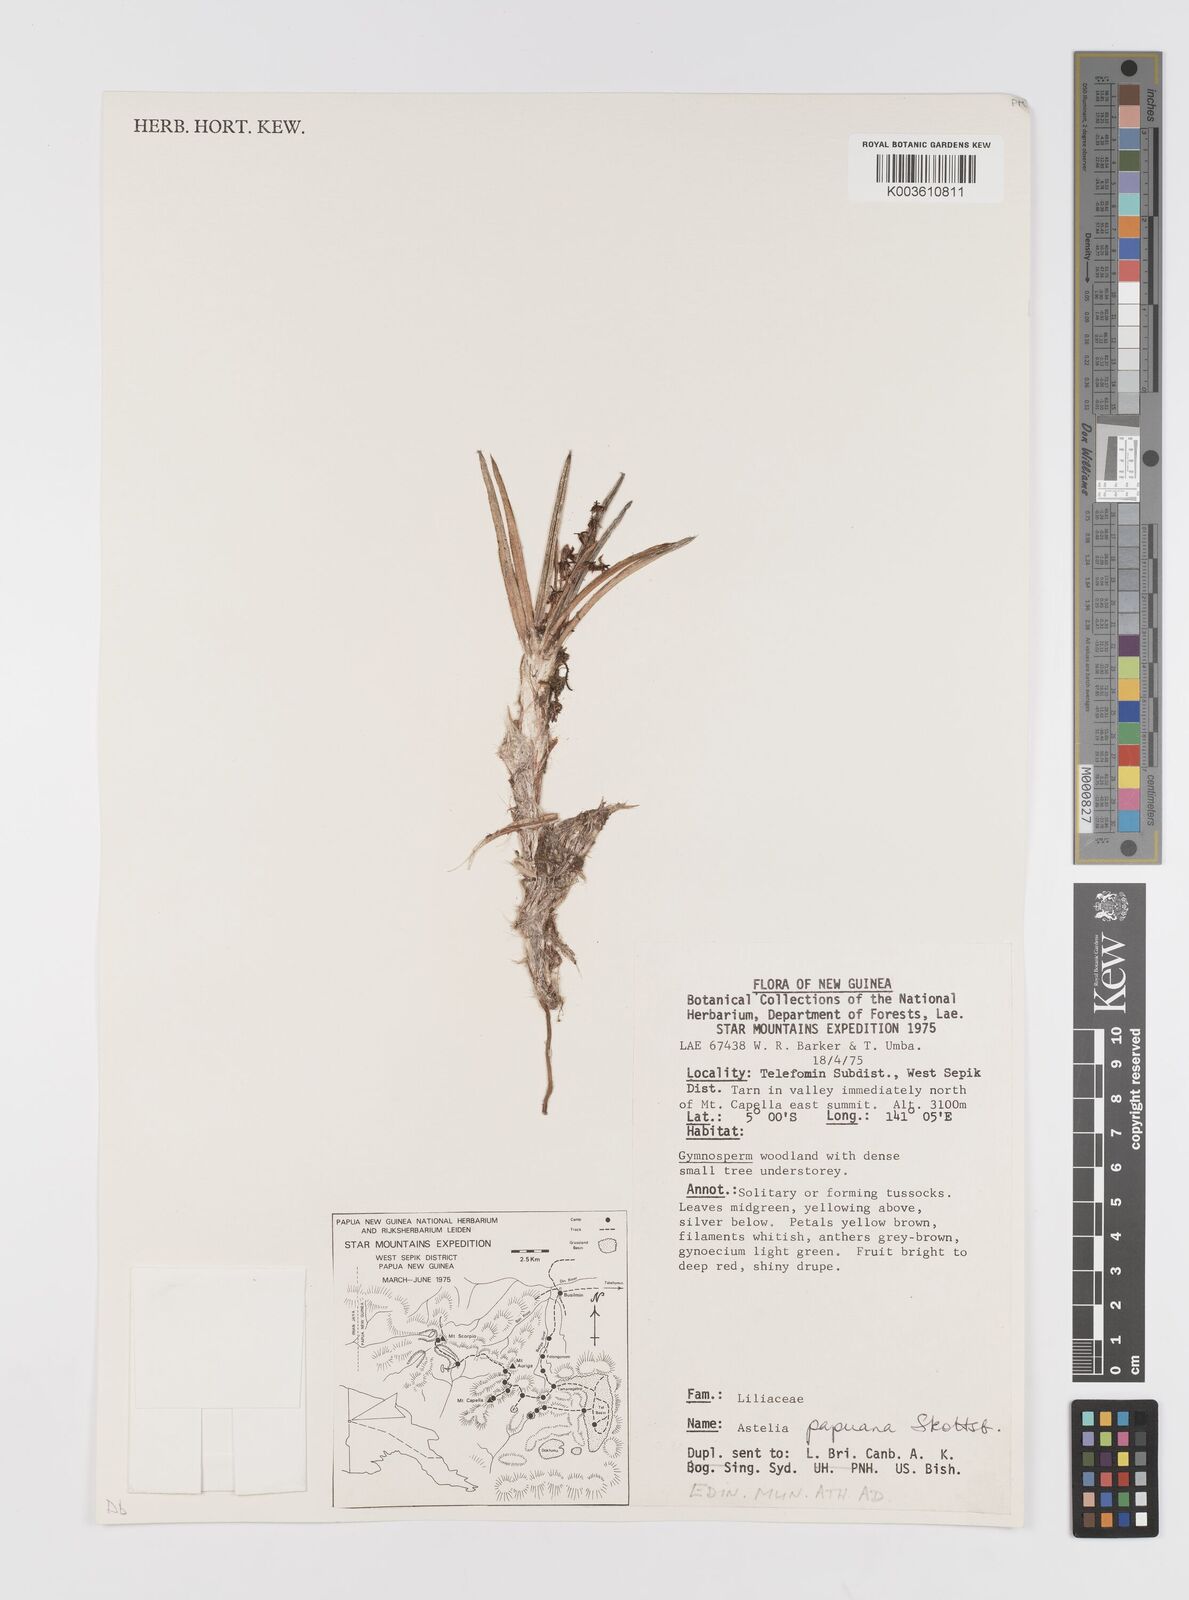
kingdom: Plantae
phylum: Tracheophyta
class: Liliopsida
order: Asparagales
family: Asteliaceae
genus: Astelia
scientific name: Astelia papuana
